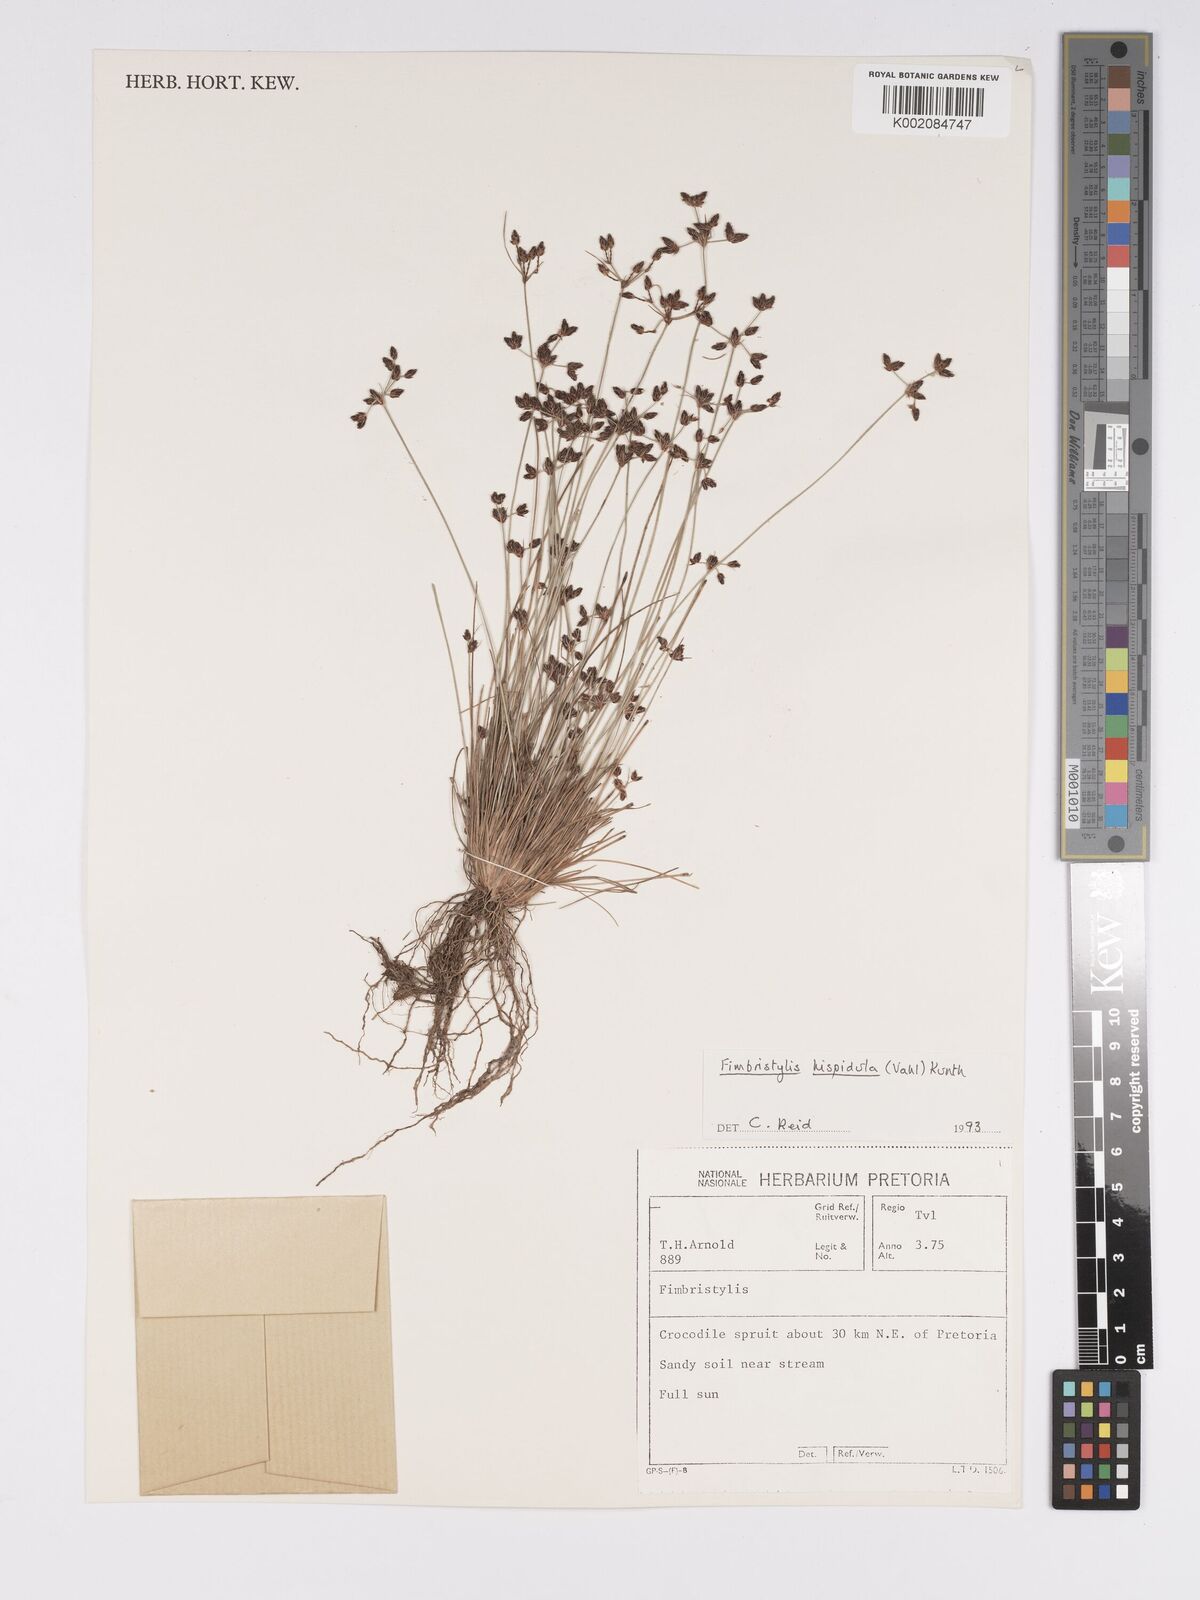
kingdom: Plantae
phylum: Tracheophyta
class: Liliopsida
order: Poales
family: Cyperaceae
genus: Bulbostylis
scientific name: Bulbostylis
